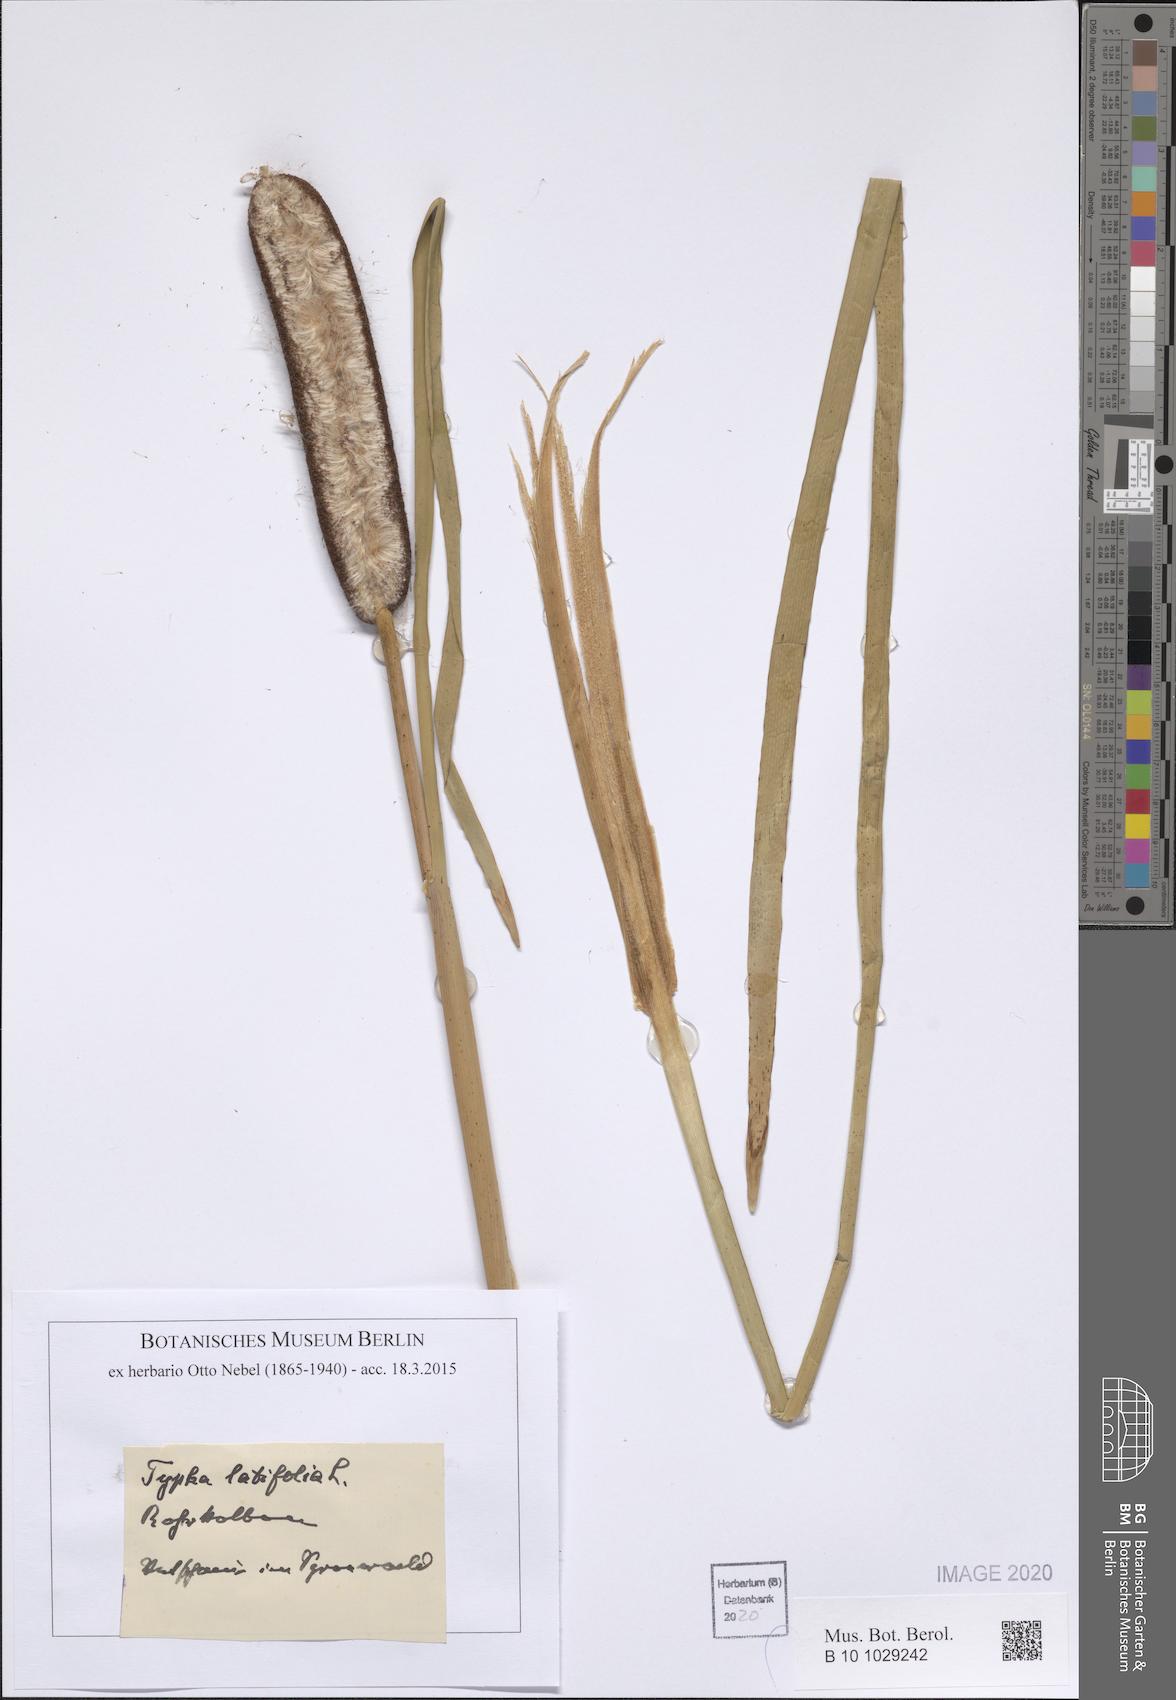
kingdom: Plantae
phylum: Tracheophyta
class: Liliopsida
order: Poales
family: Typhaceae
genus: Typha
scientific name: Typha latifolia
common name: Broadleaf cattail
